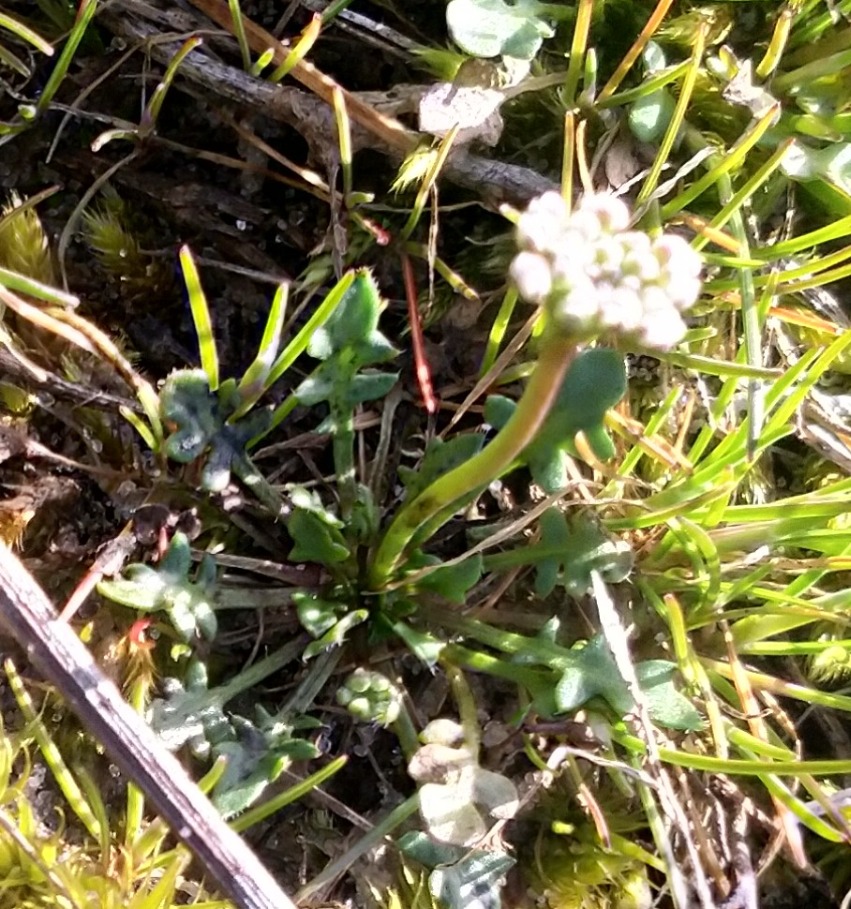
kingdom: Plantae
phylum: Tracheophyta
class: Magnoliopsida
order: Brassicales
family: Brassicaceae
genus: Teesdalia
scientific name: Teesdalia nudicaulis
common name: Flipkrave
